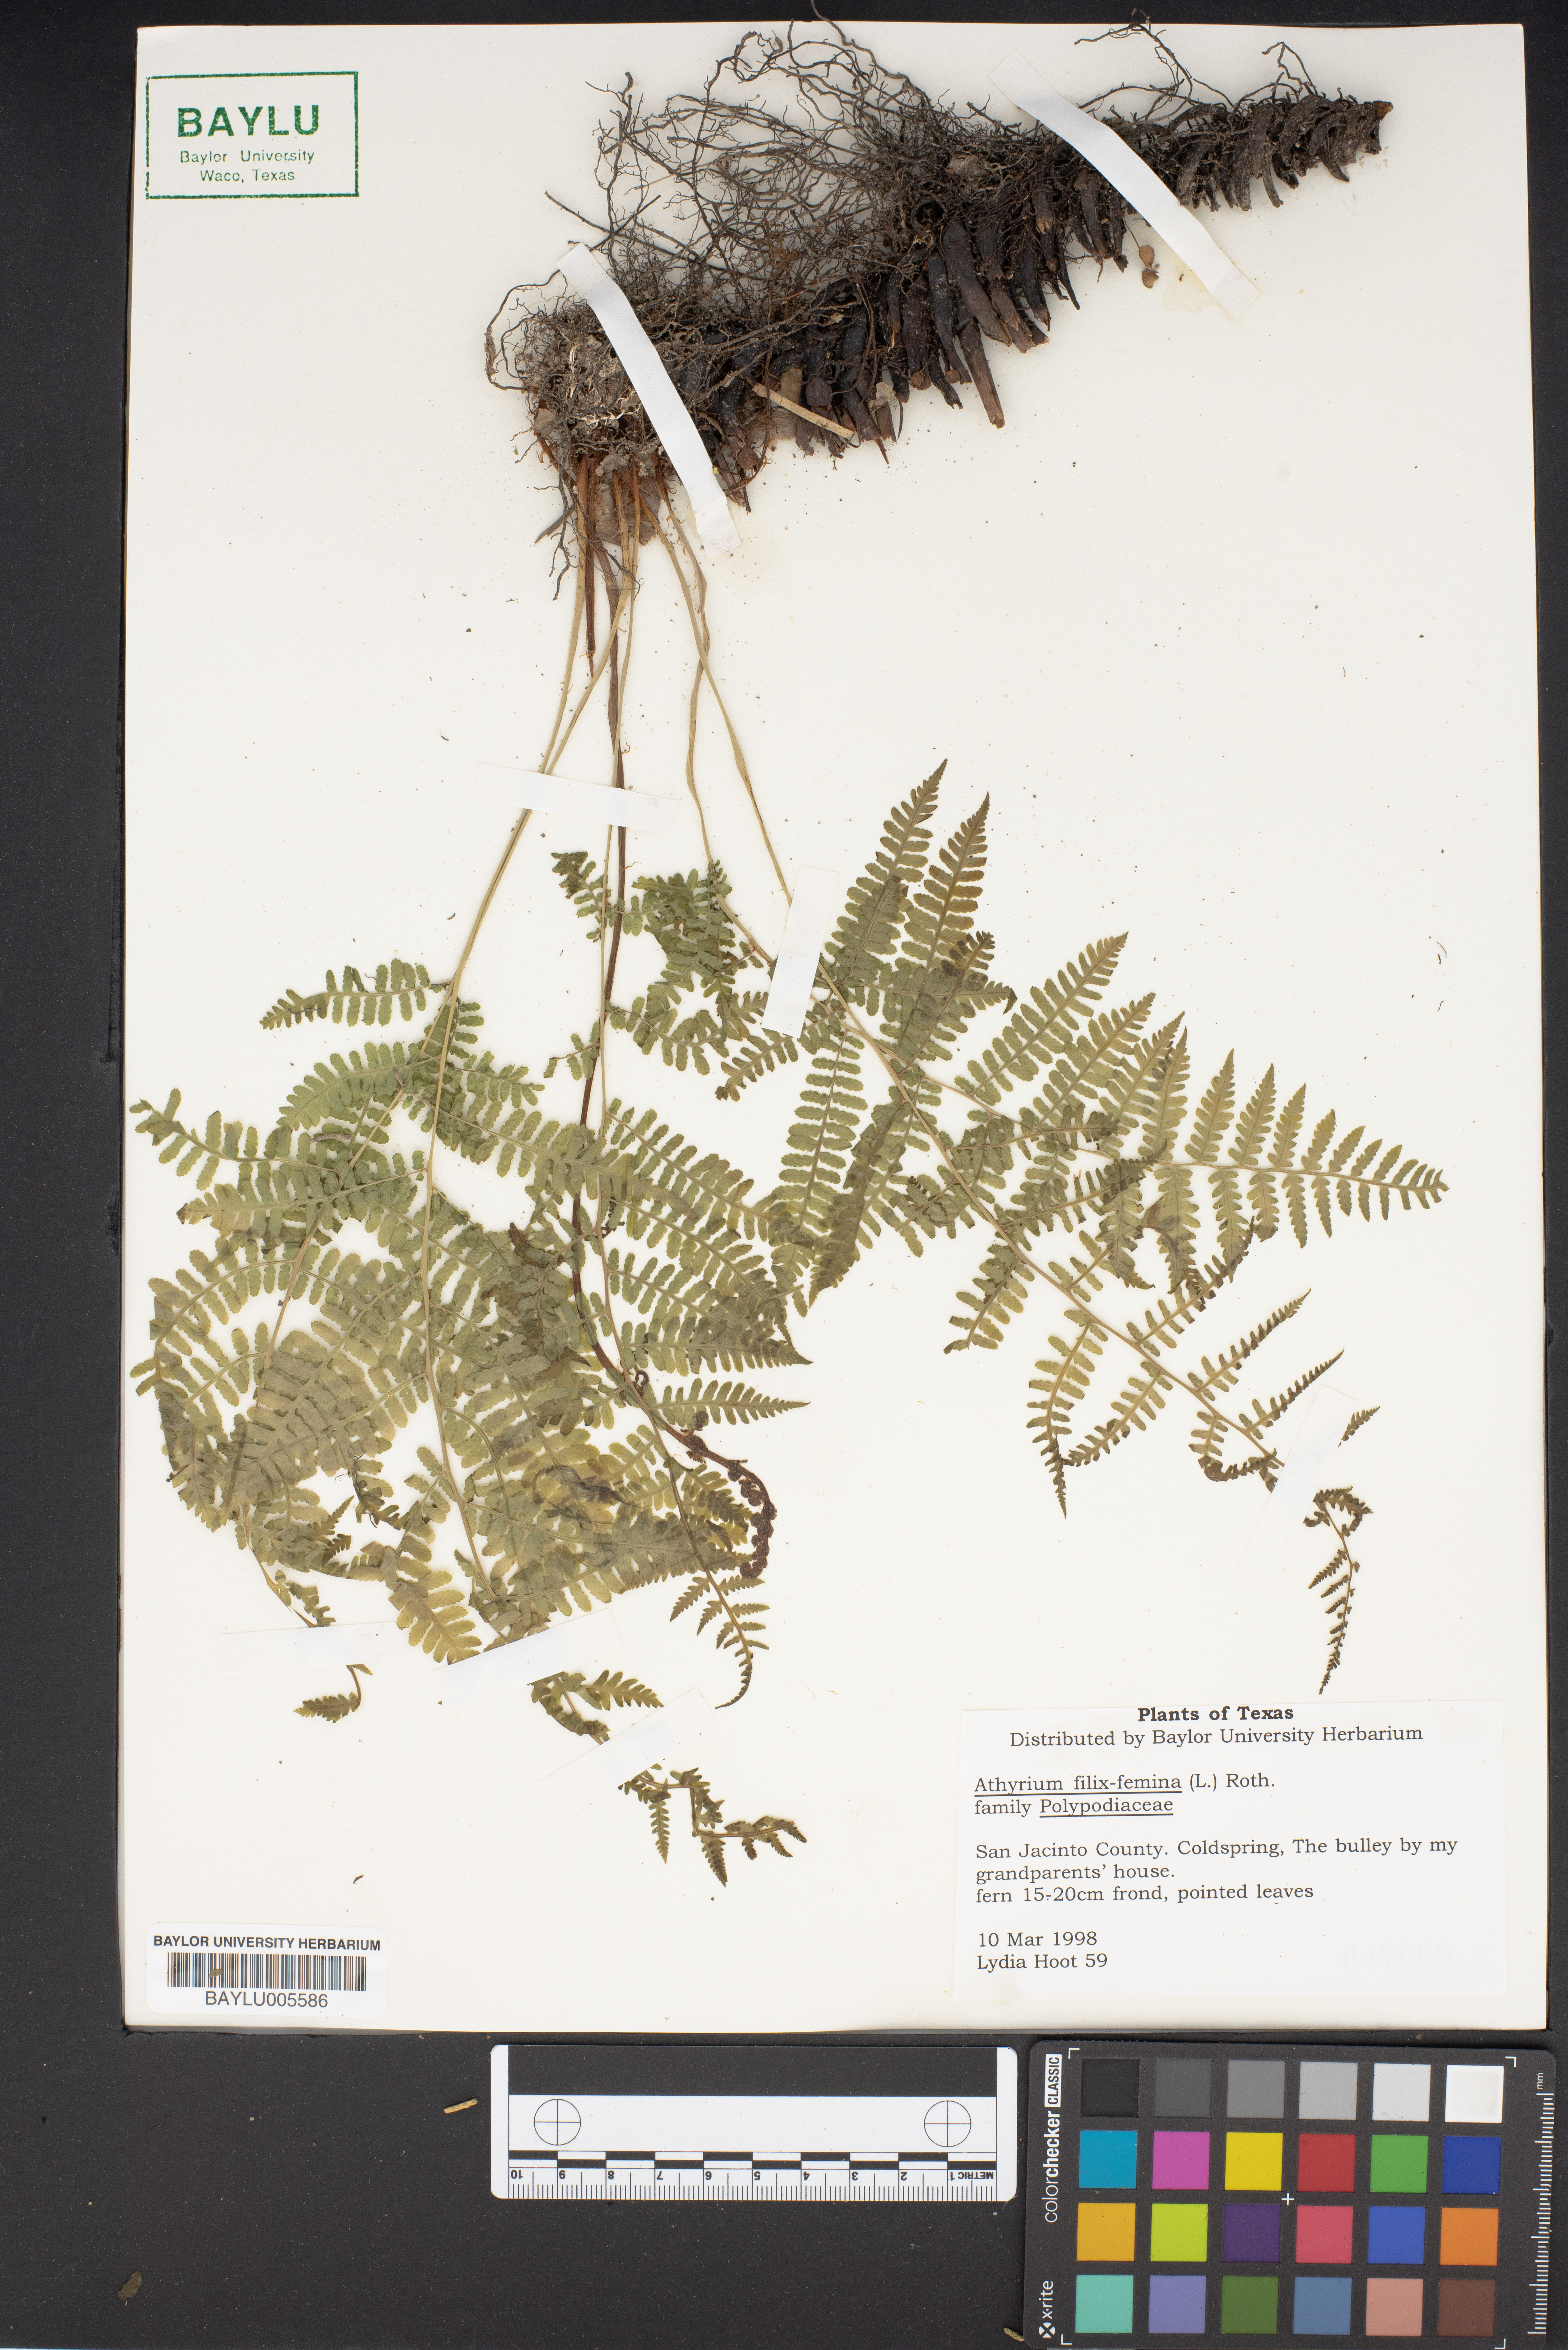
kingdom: Plantae
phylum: Tracheophyta
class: Polypodiopsida
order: Polypodiales
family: Athyriaceae
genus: Athyrium
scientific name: Athyrium filix-femina
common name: Lady fern
